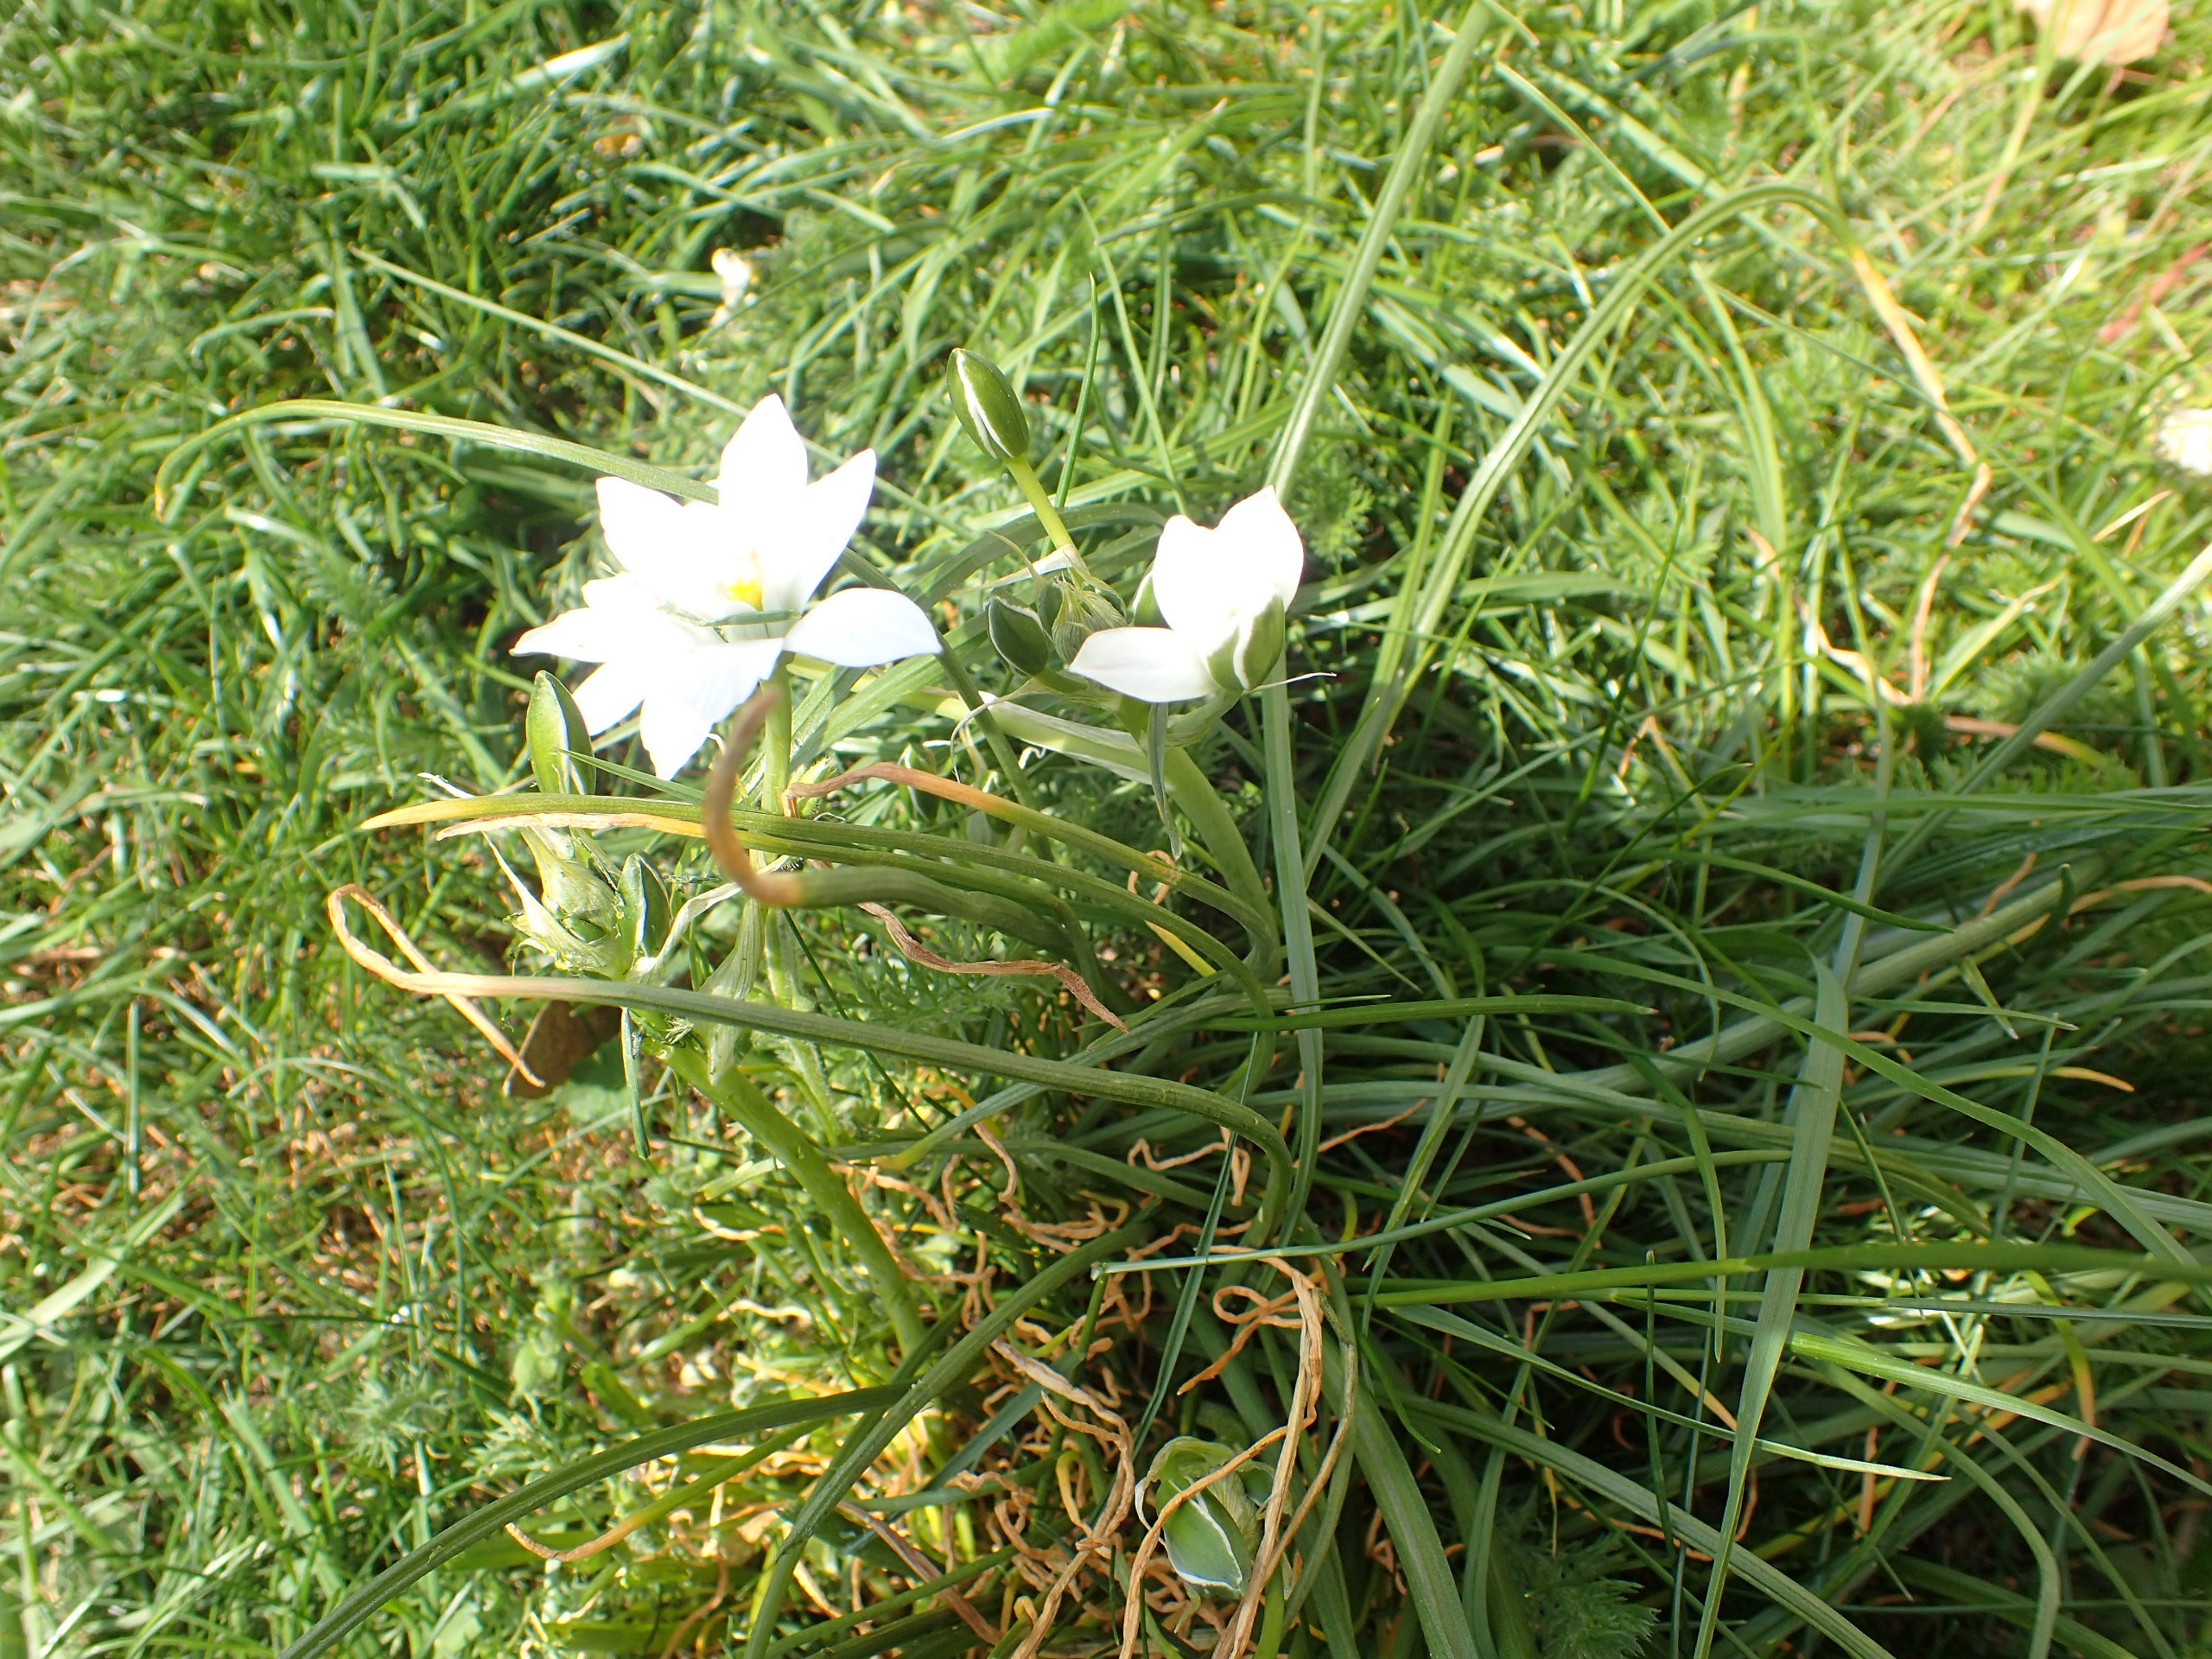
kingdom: Plantae
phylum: Tracheophyta
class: Liliopsida
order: Asparagales
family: Asparagaceae
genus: Ornithogalum
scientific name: Ornithogalum
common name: Fuglemælkslægten
